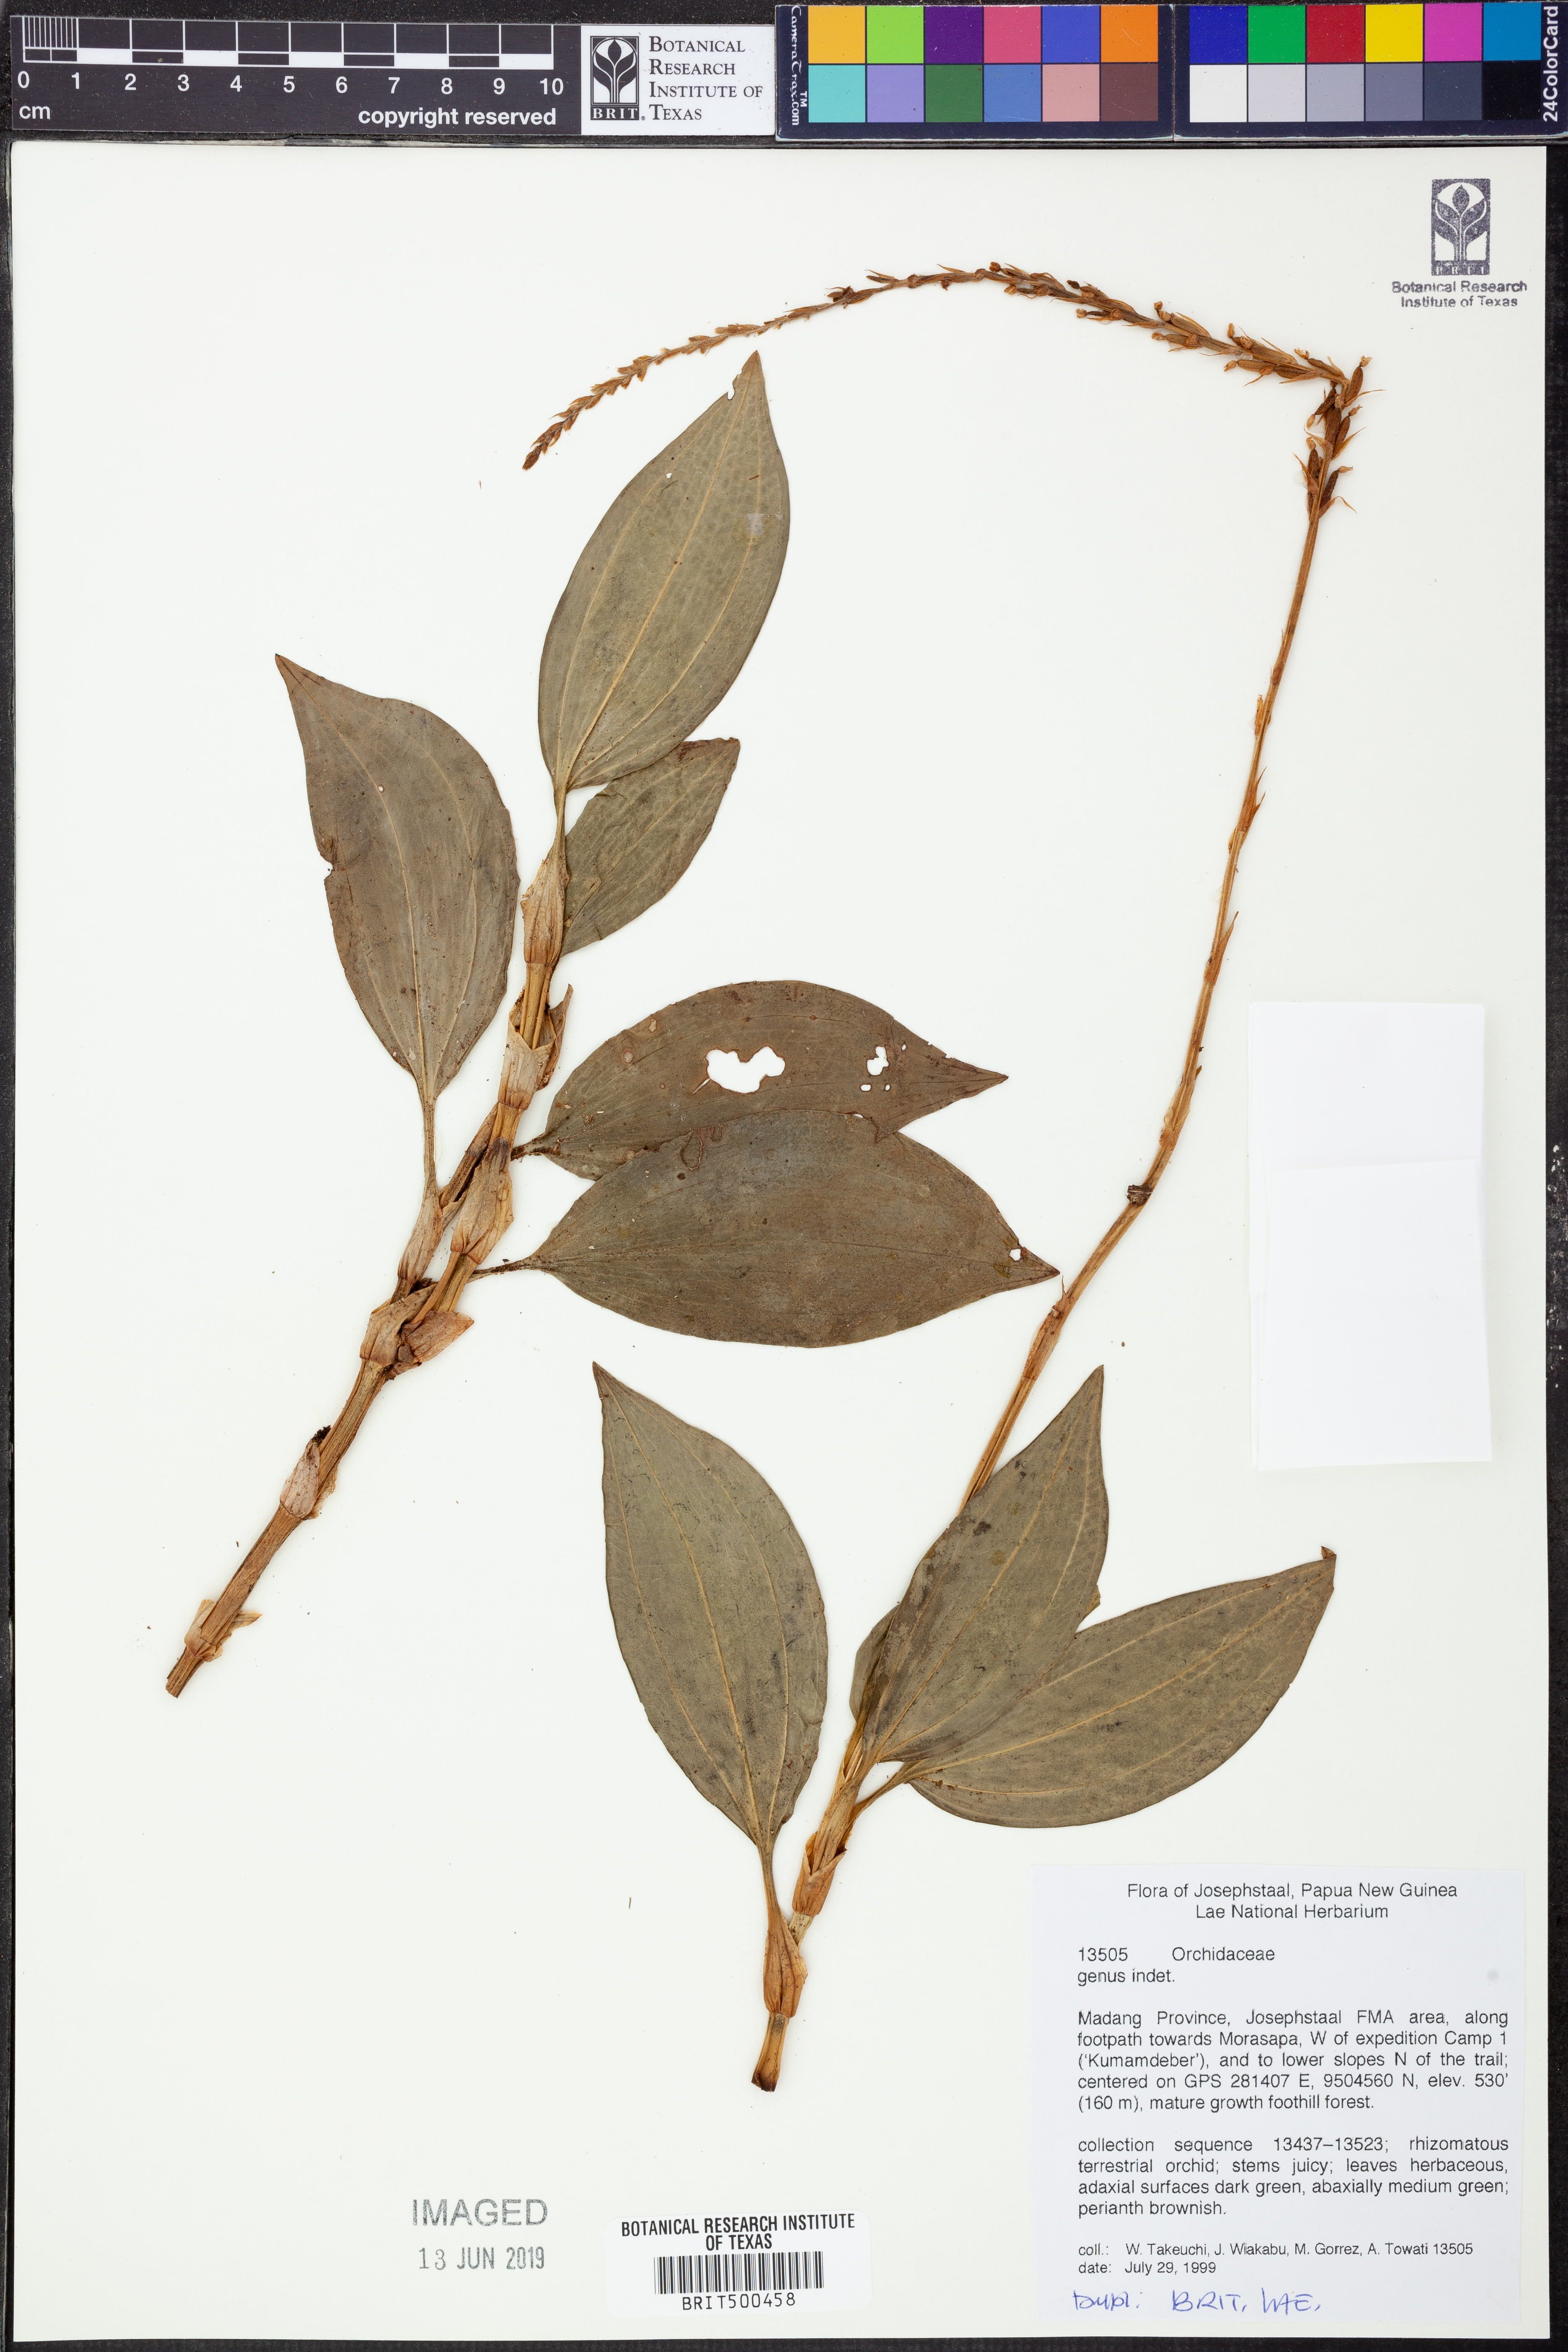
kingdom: Plantae
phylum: Tracheophyta
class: Liliopsida
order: Asparagales
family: Orchidaceae
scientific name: Orchidaceae
